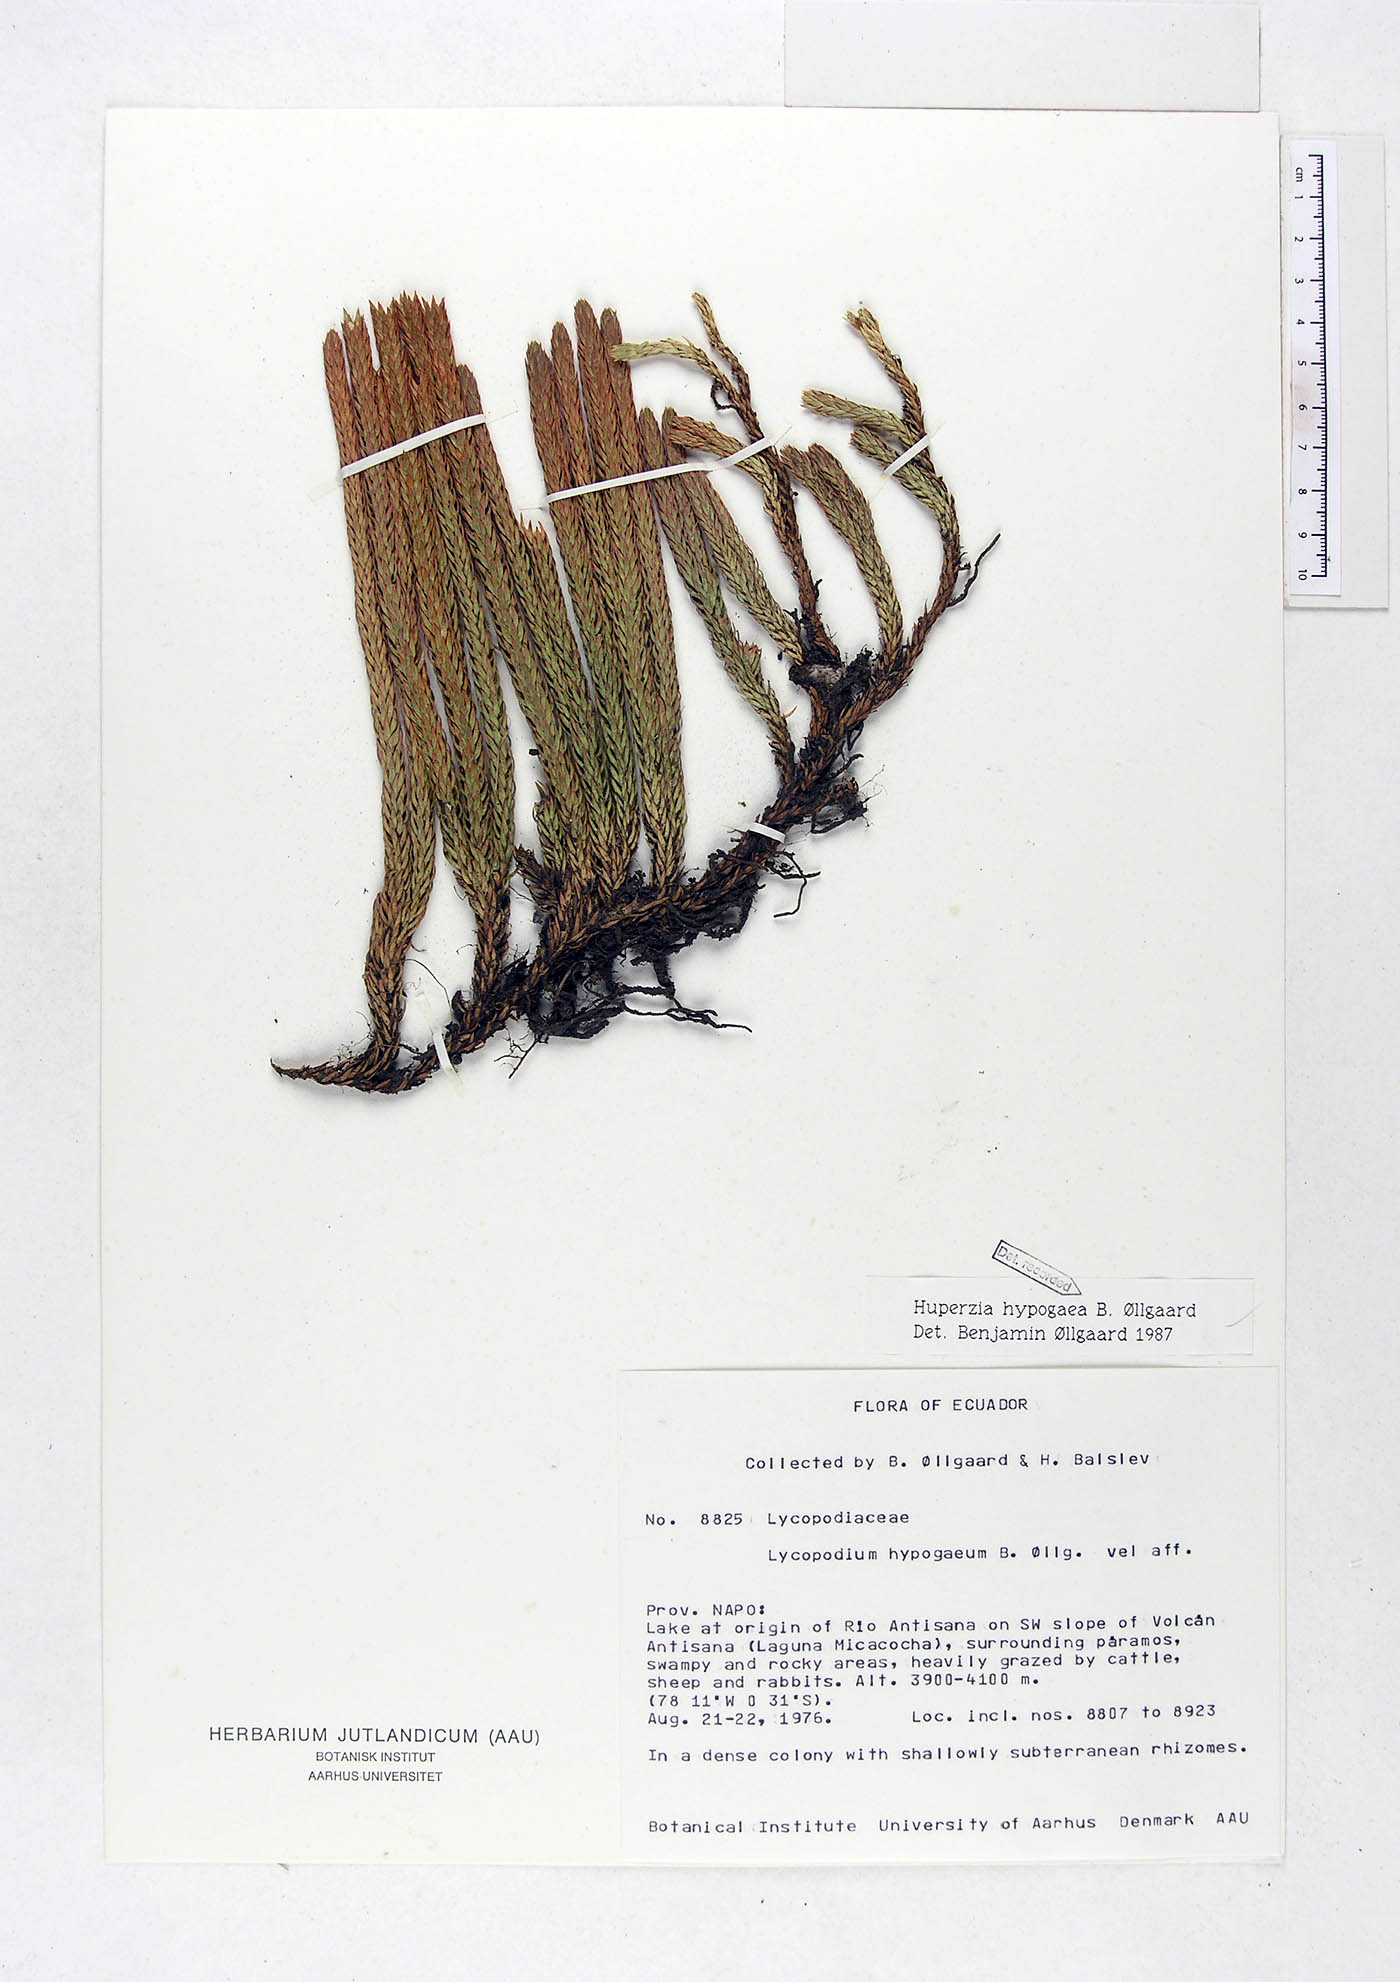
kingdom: Plantae
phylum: Tracheophyta
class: Lycopodiopsida
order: Lycopodiales
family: Lycopodiaceae
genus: Phlegmariurus
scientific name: Phlegmariurus hypogaeus
